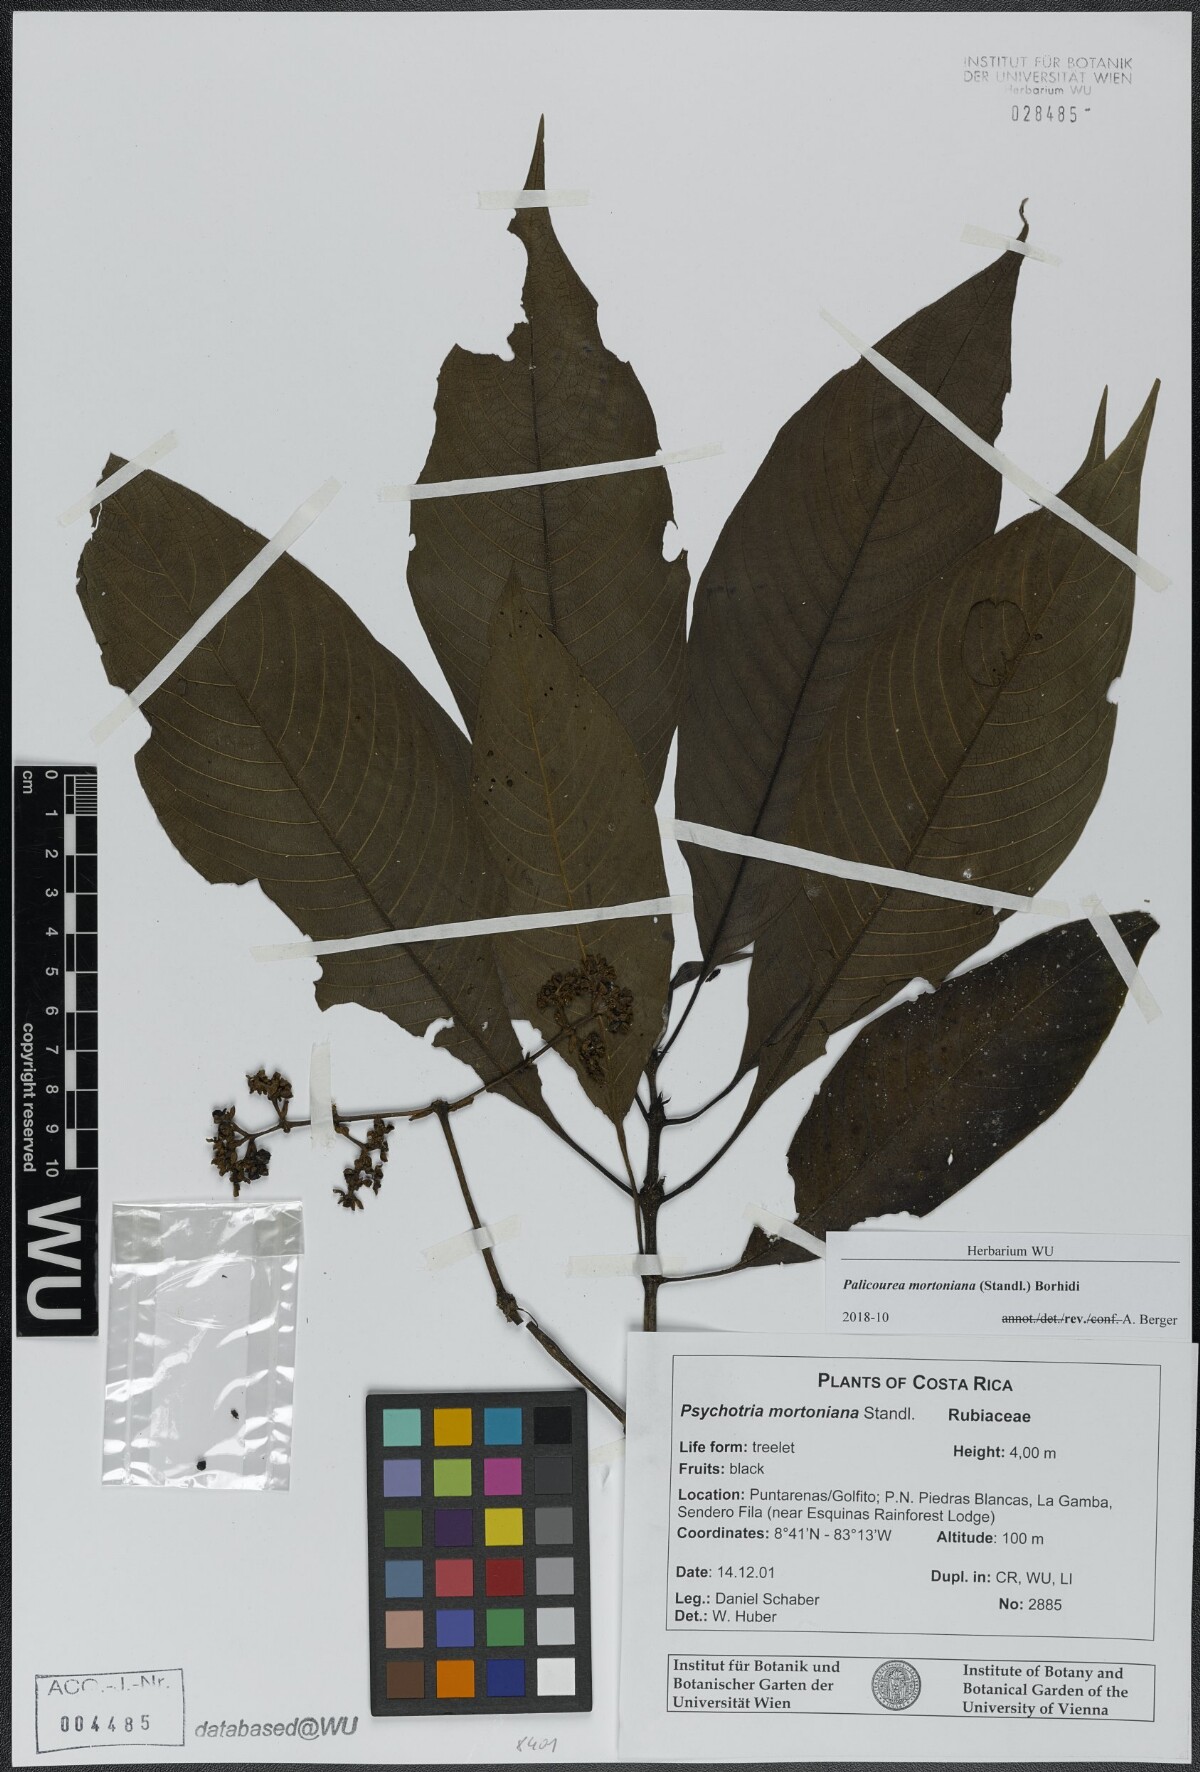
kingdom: Plantae
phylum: Tracheophyta
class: Magnoliopsida
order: Gentianales
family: Rubiaceae
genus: Palicourea
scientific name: Palicourea mortoniana
